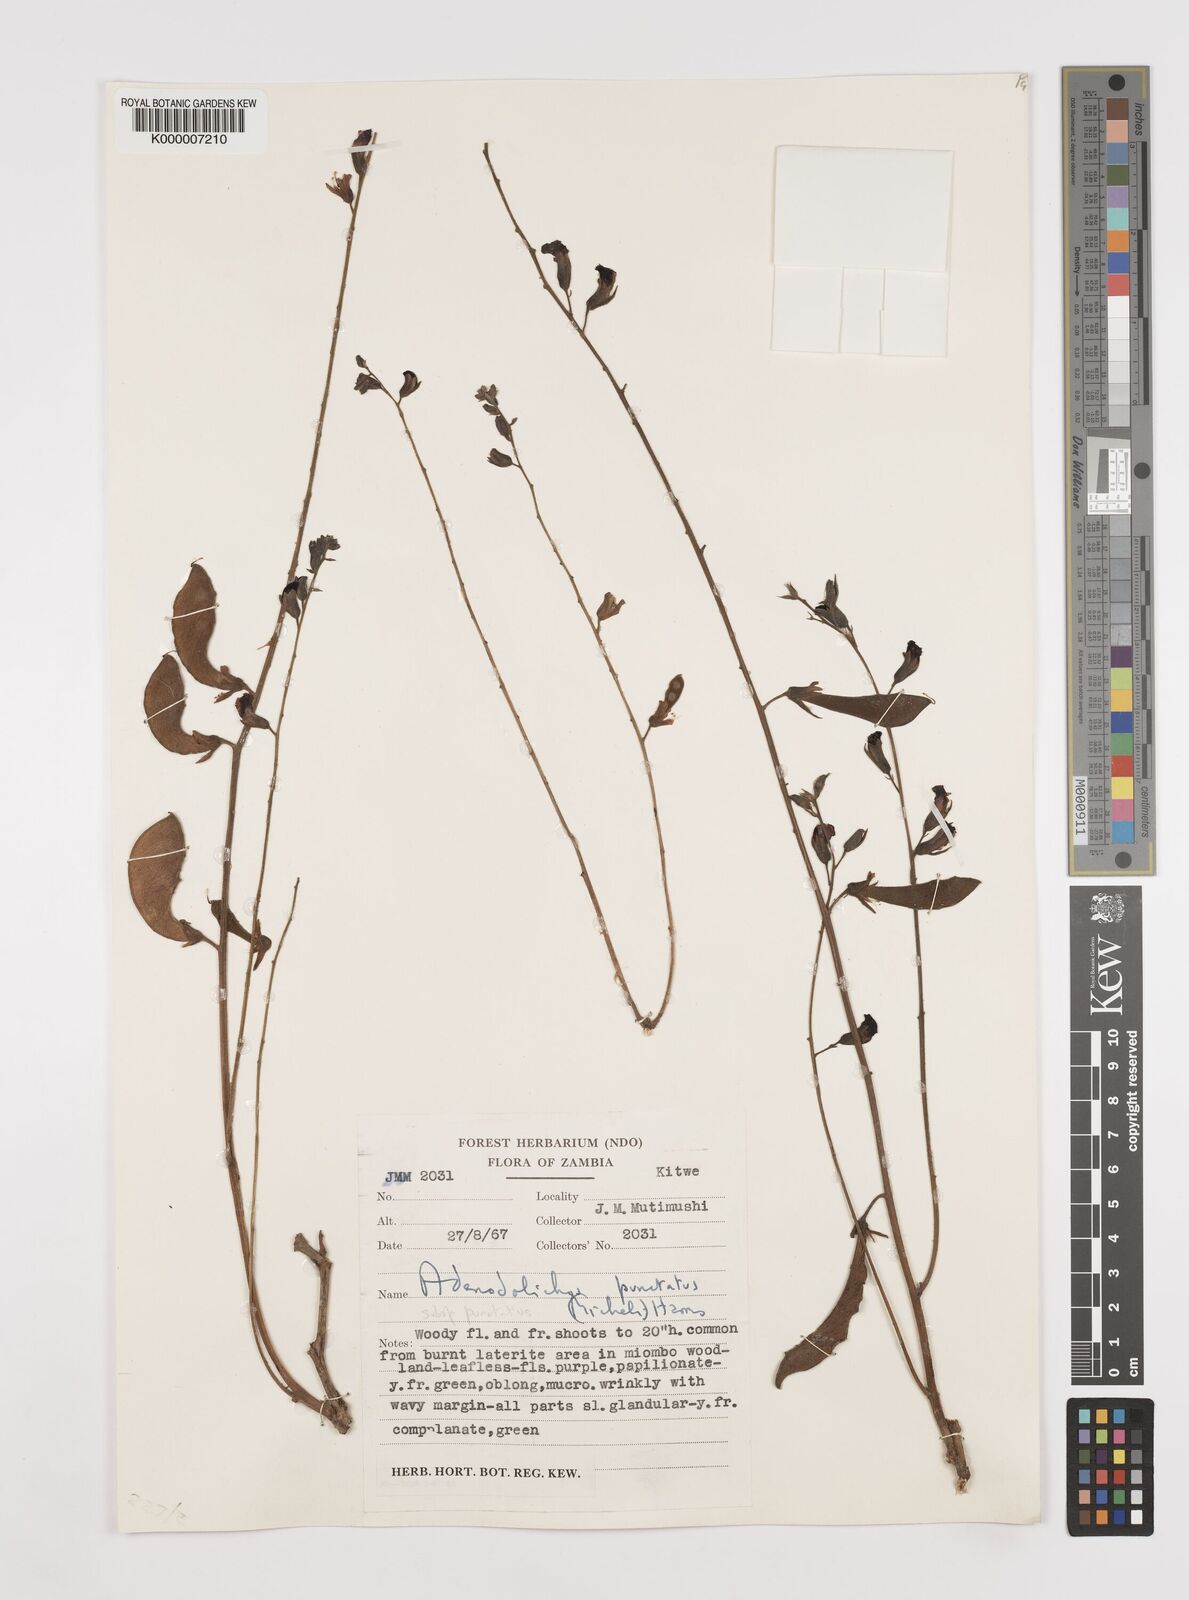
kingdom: Plantae
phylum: Tracheophyta
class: Magnoliopsida
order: Fabales
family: Fabaceae
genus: Adenodolichos
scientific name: Adenodolichos punctatus
